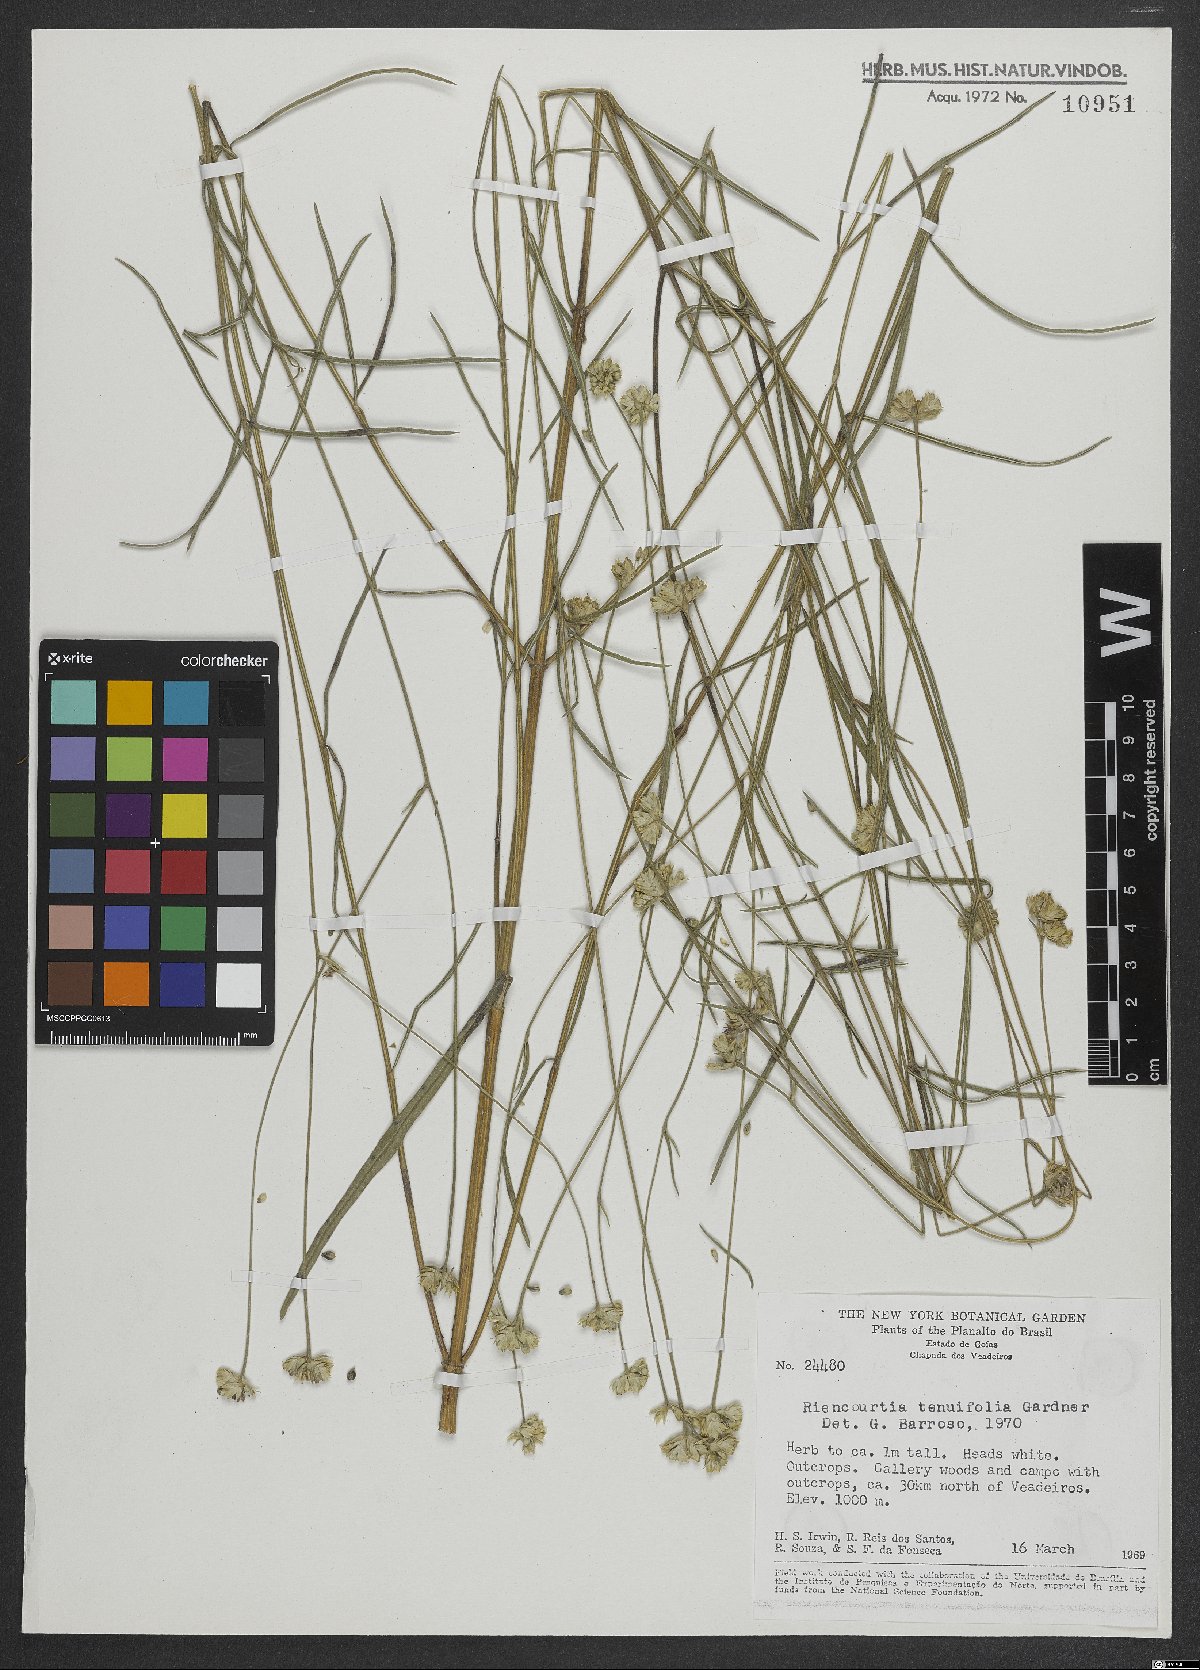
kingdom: Plantae
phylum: Tracheophyta
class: Magnoliopsida
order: Asterales
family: Asteraceae
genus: Riencourtia
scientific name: Riencourtia tenuifolia
